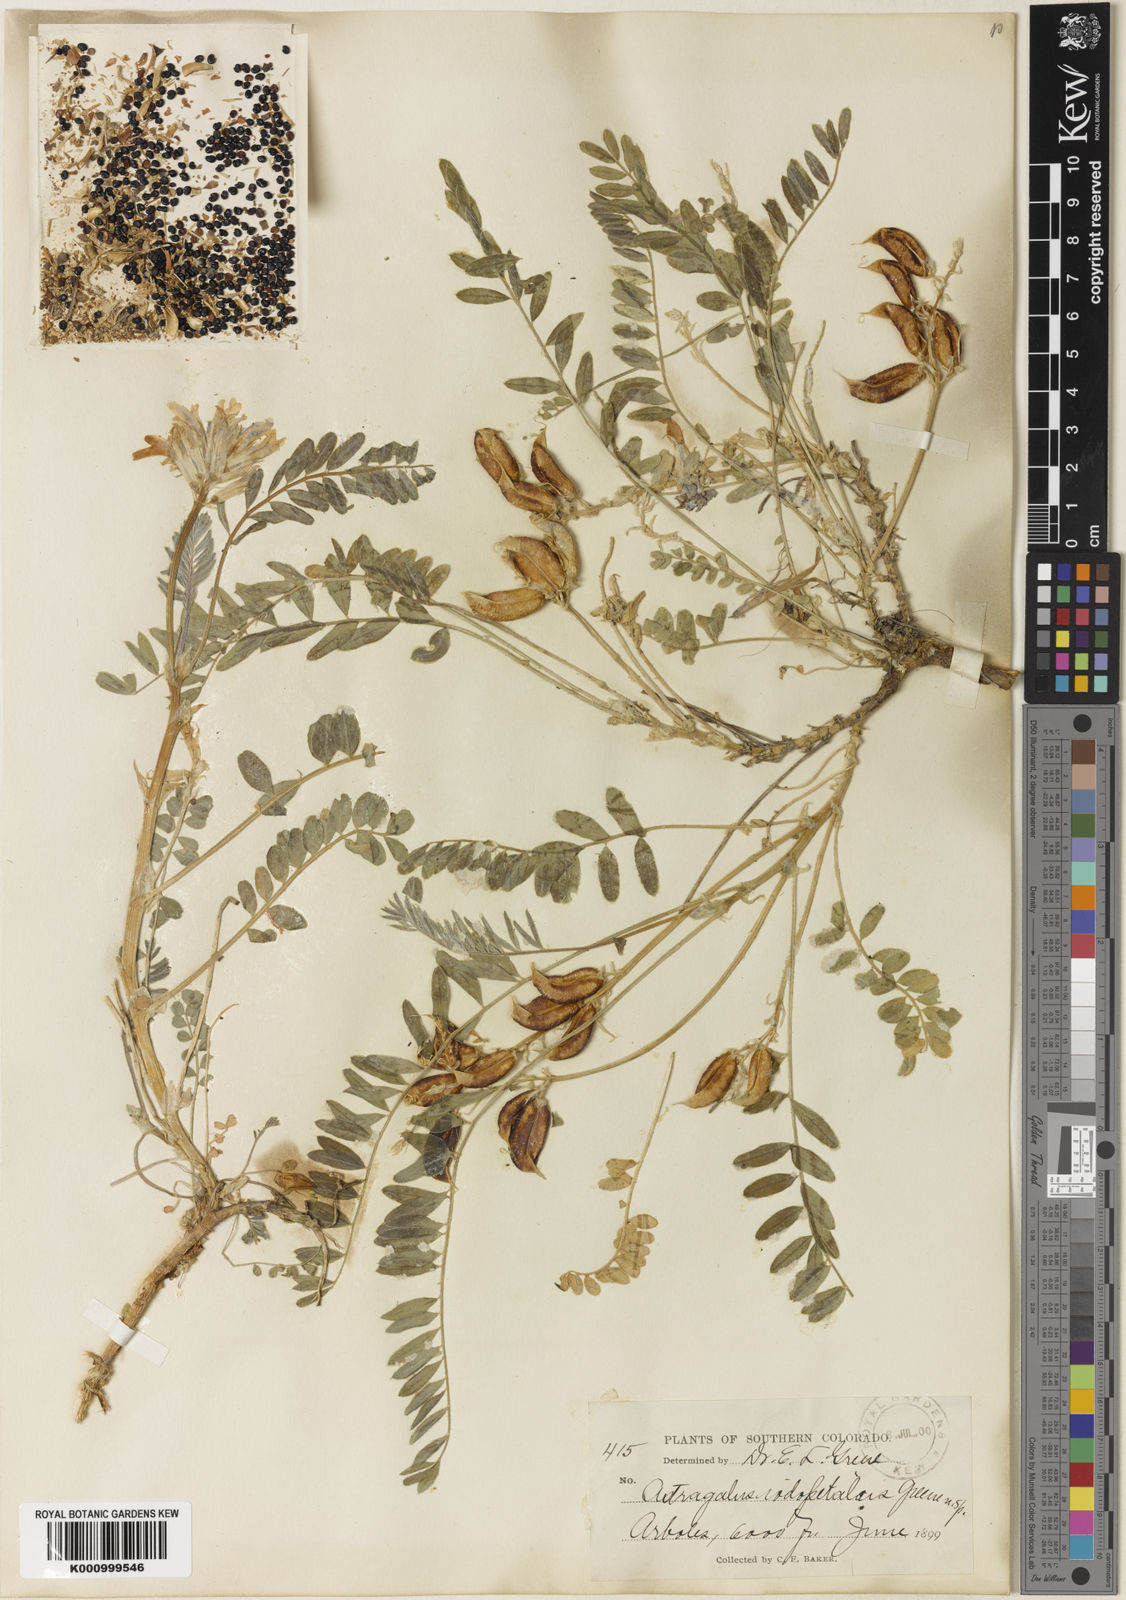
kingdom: Plantae
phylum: Tracheophyta
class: Magnoliopsida
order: Fabales
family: Fabaceae
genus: Astragalus
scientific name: Astragalus
